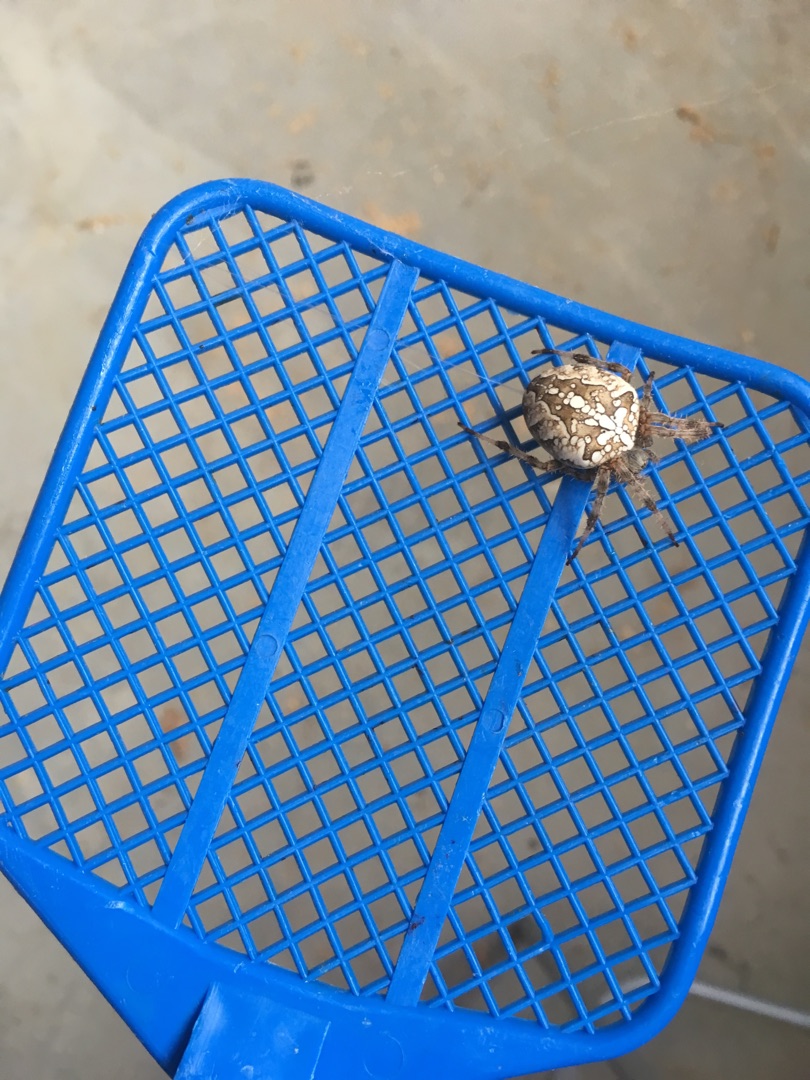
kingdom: Animalia
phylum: Arthropoda
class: Arachnida
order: Araneae
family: Araneidae
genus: Araneus
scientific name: Araneus diadematus
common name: Korsedderkop
